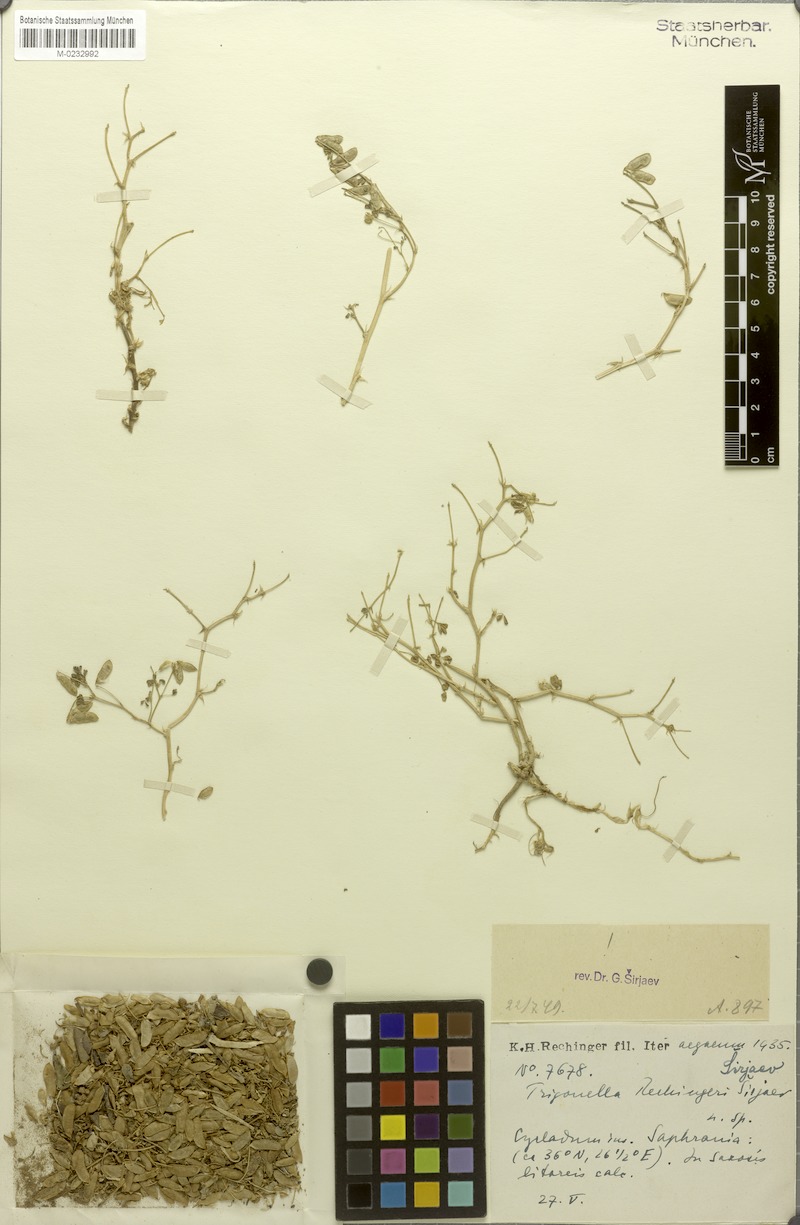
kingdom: Plantae
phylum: Tracheophyta
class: Magnoliopsida
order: Fabales
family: Fabaceae
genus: Trigonella
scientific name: Trigonella rechingeri
